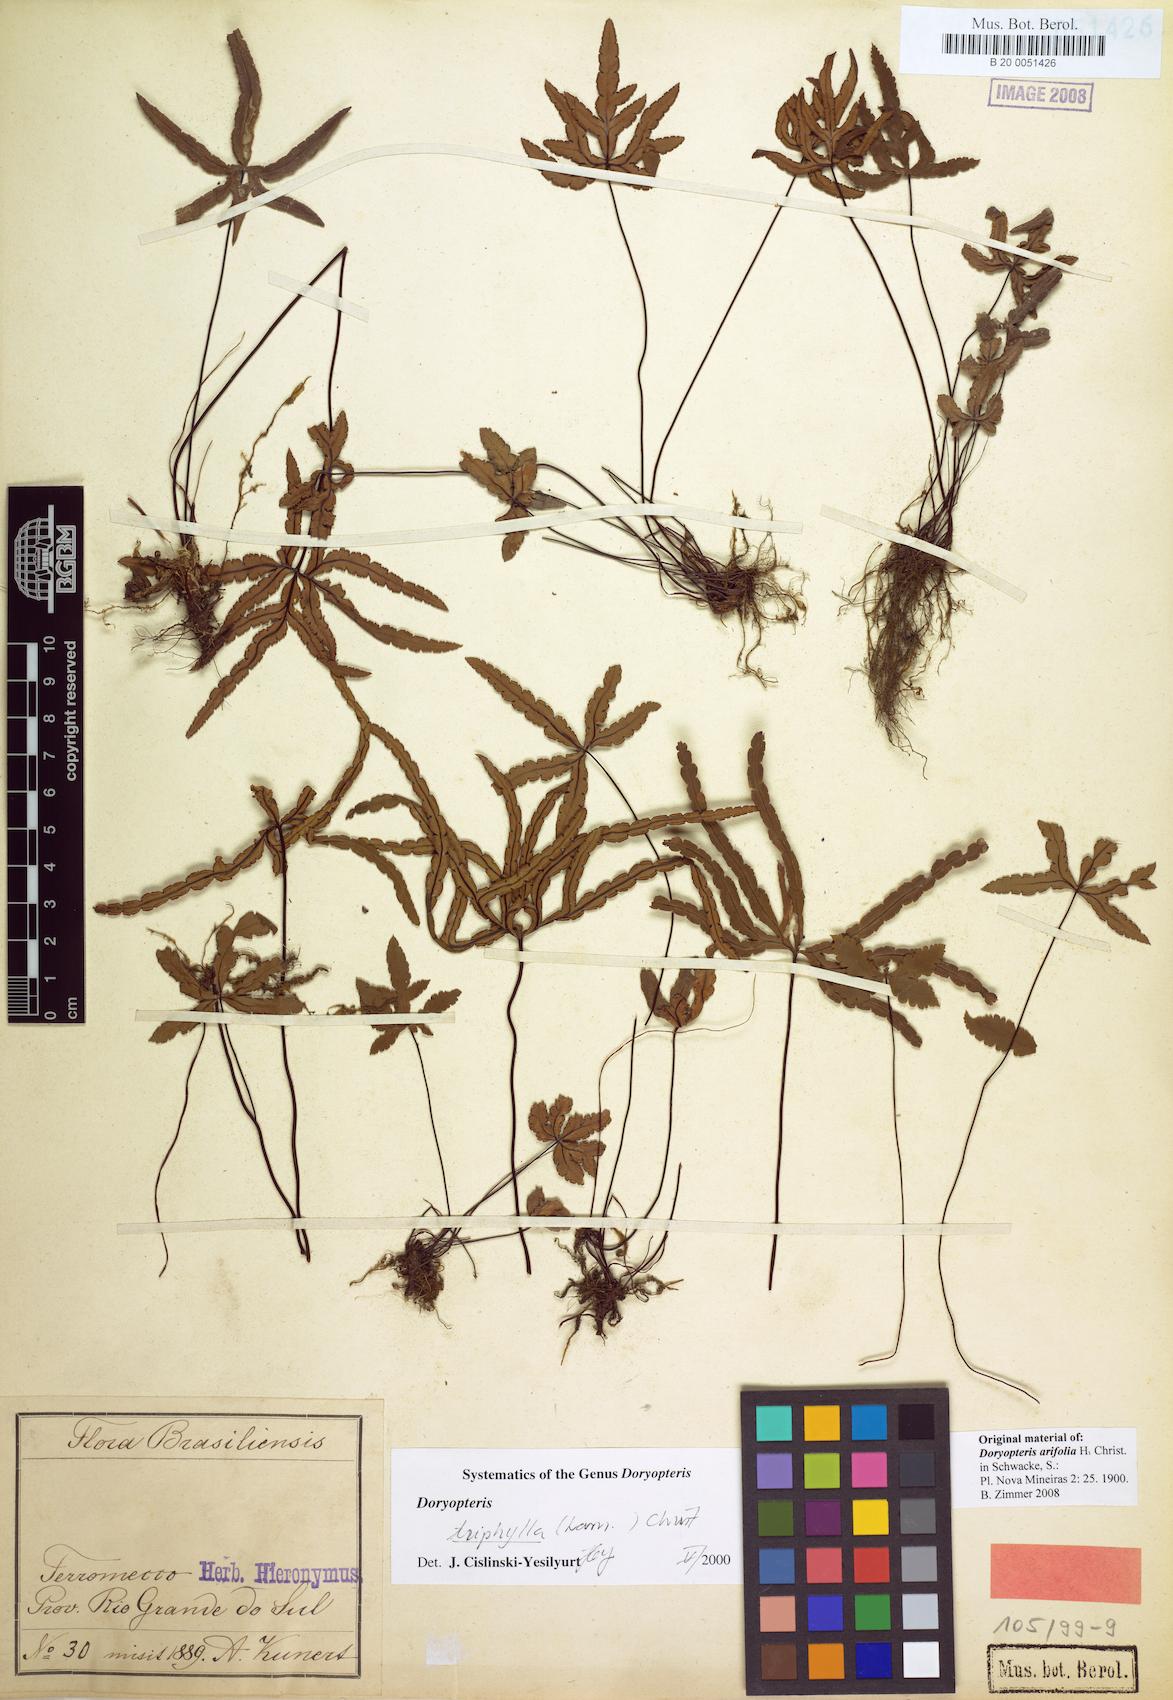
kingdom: Plantae
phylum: Tracheophyta
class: Polypodiopsida
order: Polypodiales
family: Pteridaceae
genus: Doryopteris
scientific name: Doryopteris triphylla
